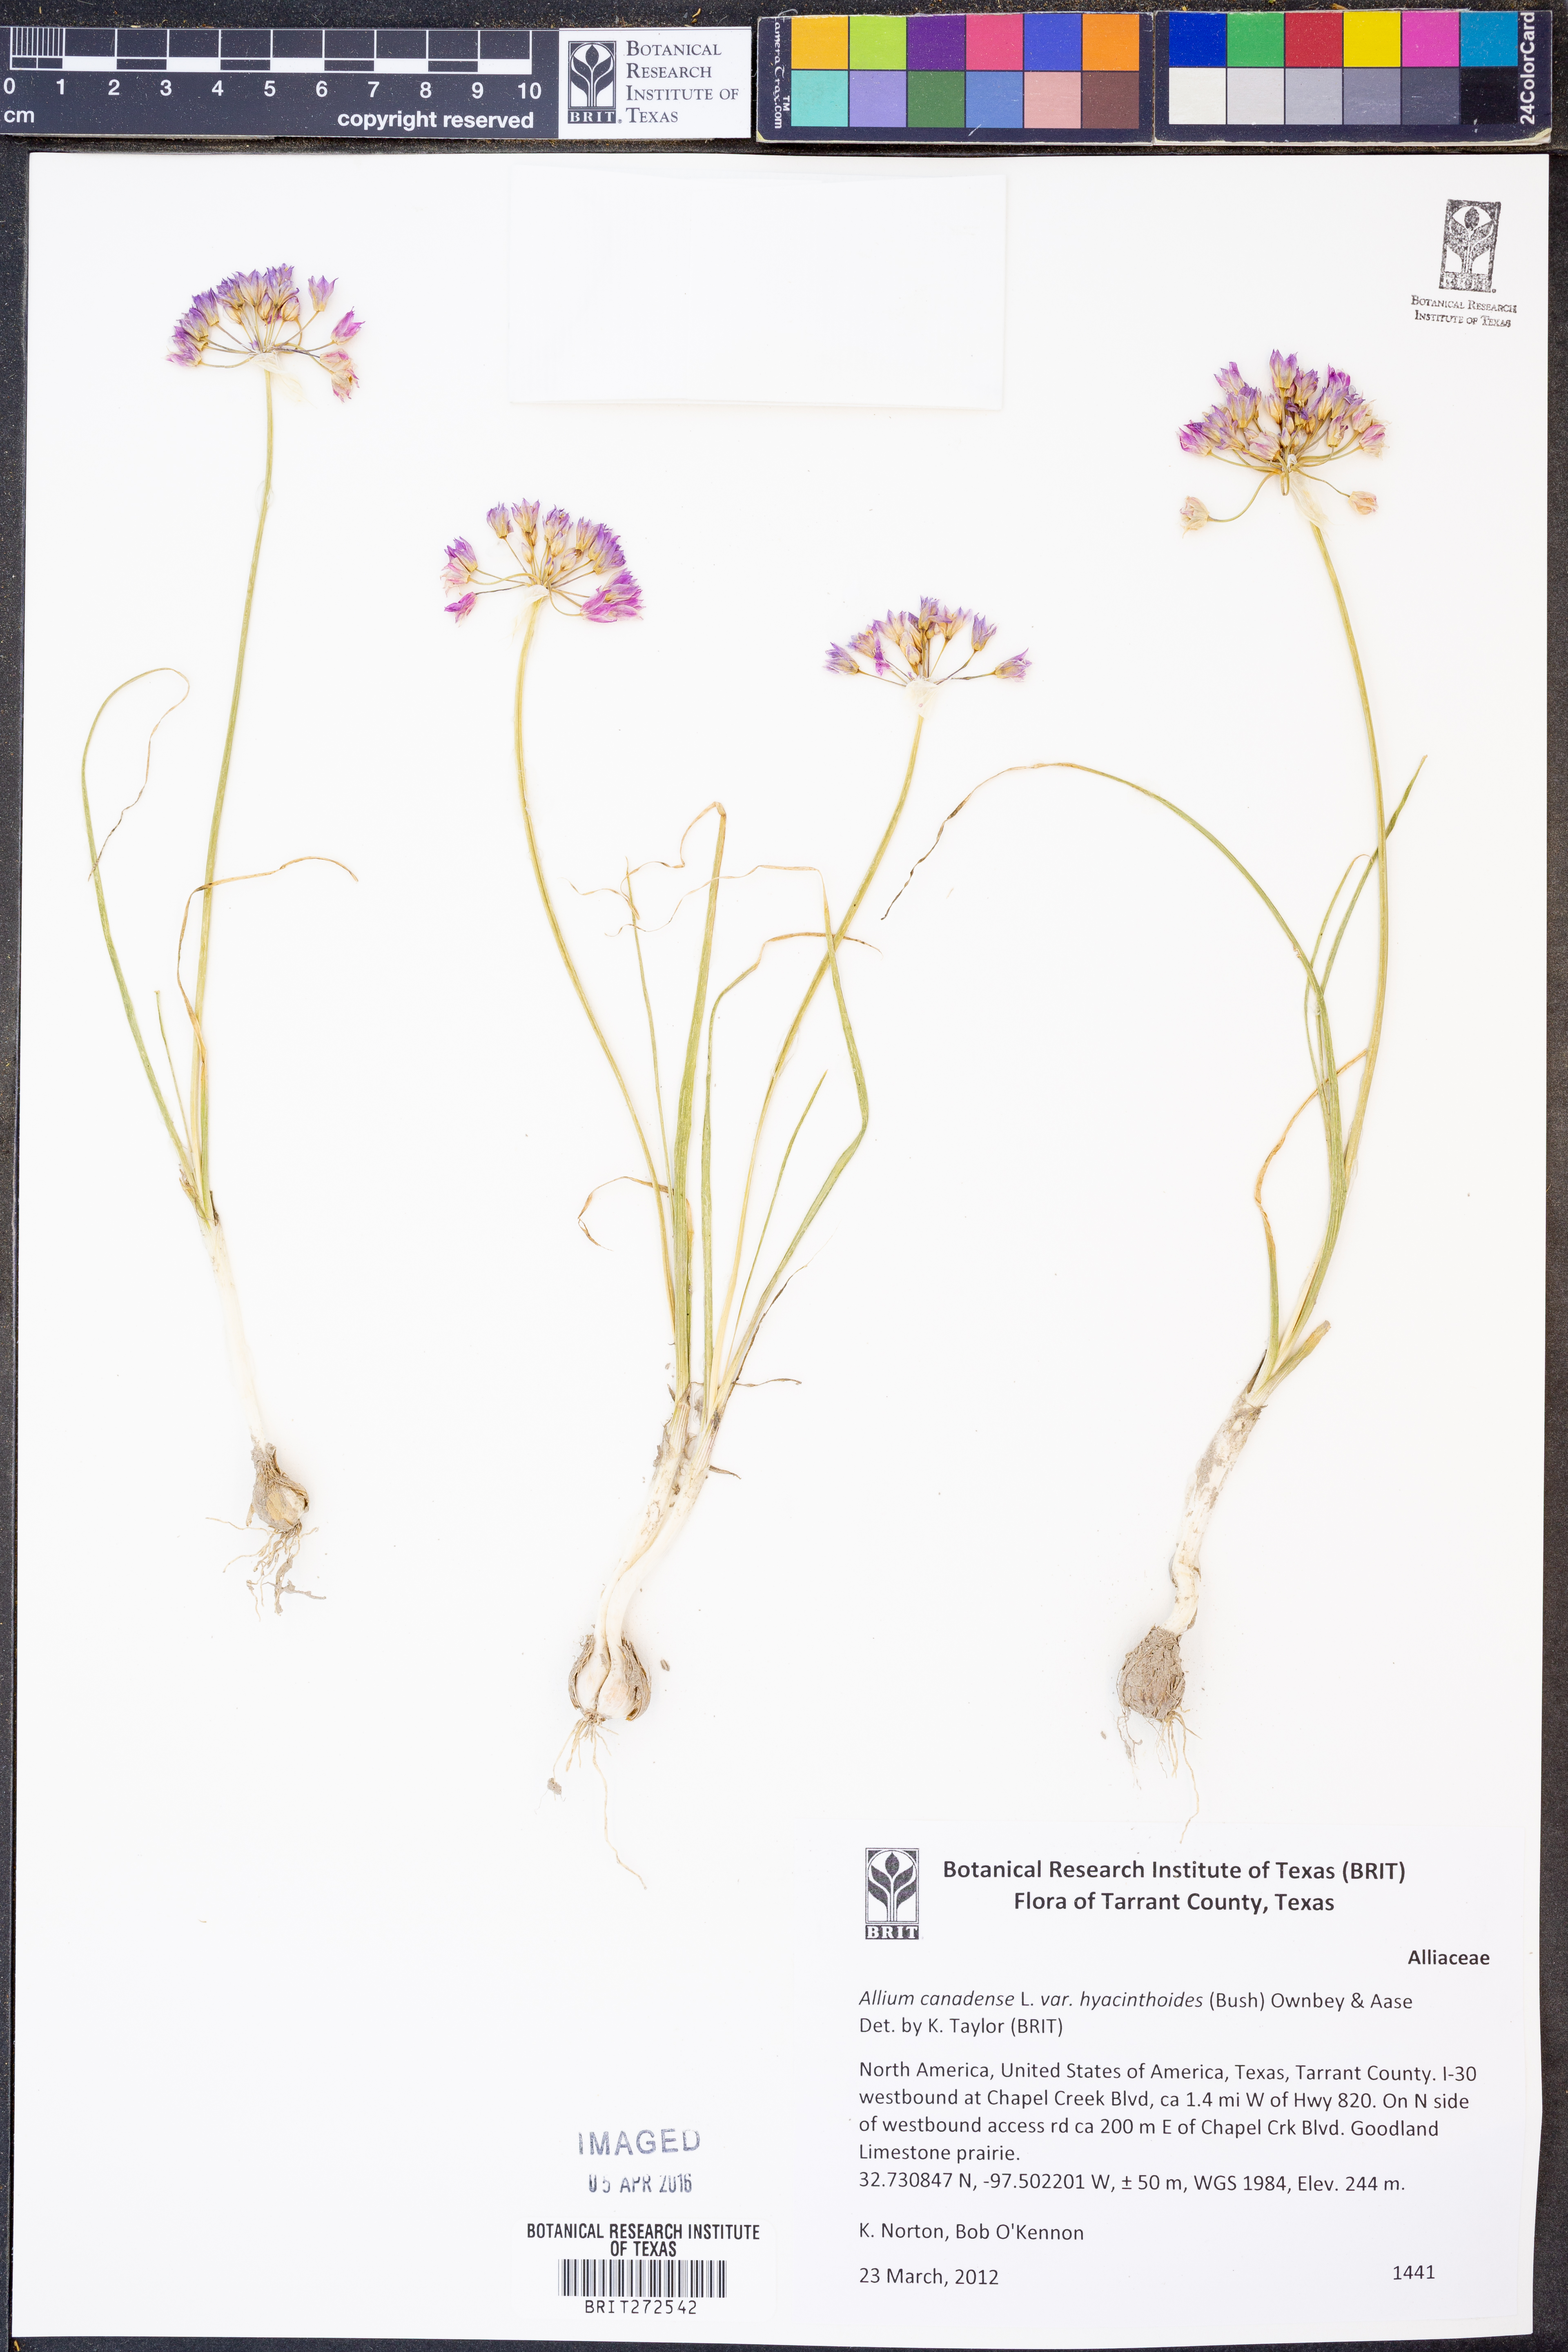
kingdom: Plantae
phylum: Tracheophyta
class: Liliopsida
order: Asparagales
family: Amaryllidaceae
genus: Allium
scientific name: Allium canadense
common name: Meadow garlic
